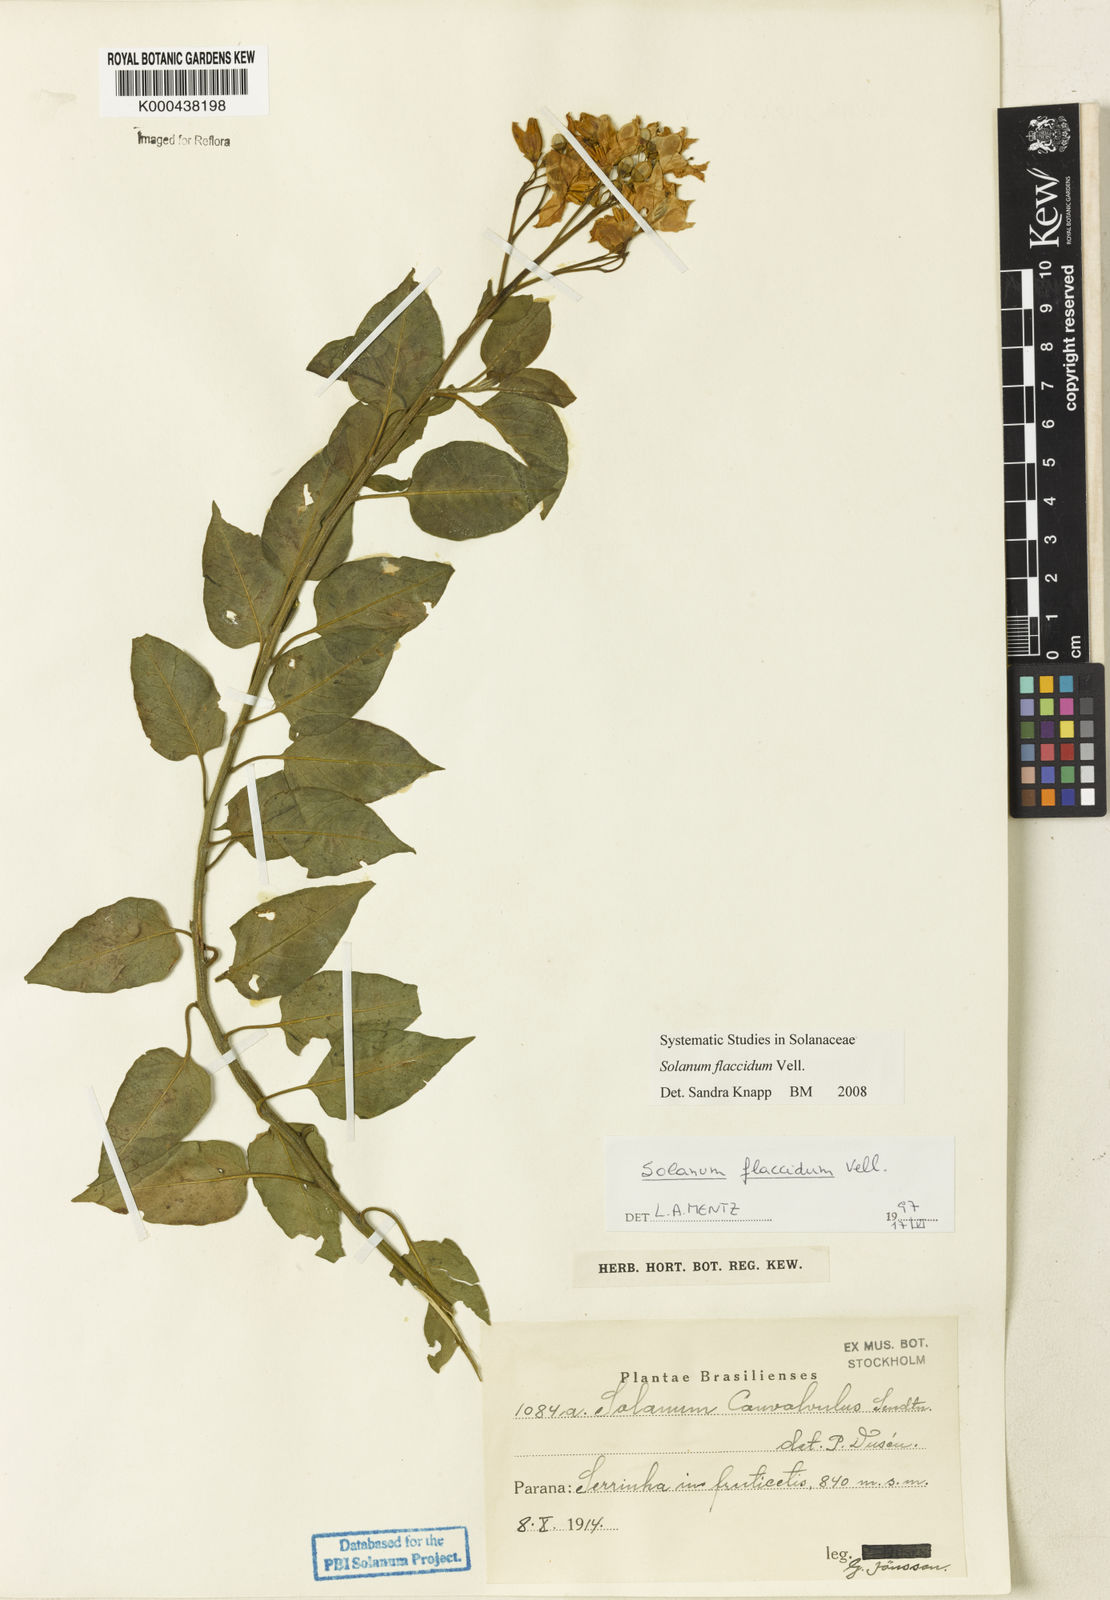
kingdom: Plantae
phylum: Tracheophyta
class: Magnoliopsida
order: Solanales
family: Solanaceae
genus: Solanum
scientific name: Solanum flaccidum
